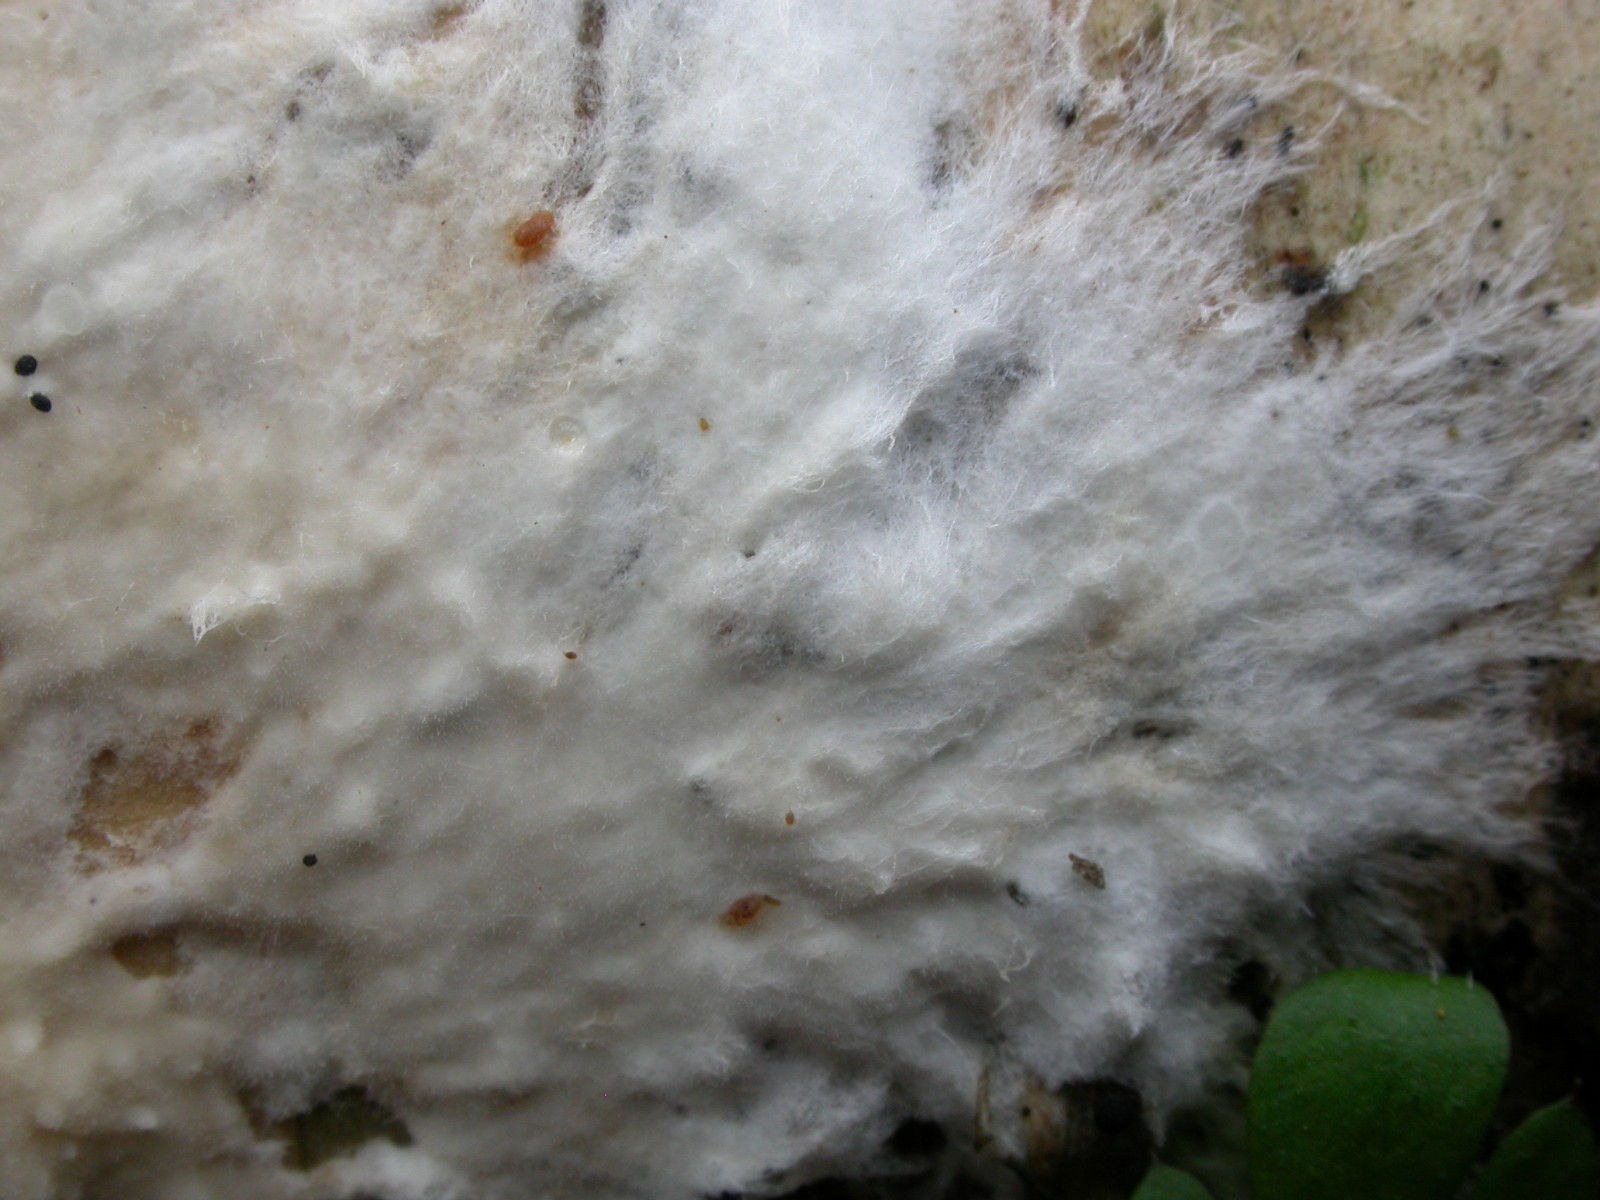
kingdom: Fungi
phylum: Basidiomycota
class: Agaricomycetes
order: Polyporales
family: Phanerochaetaceae
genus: Phanerochaete
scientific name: Phanerochaete velutina
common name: dunet randtråd
